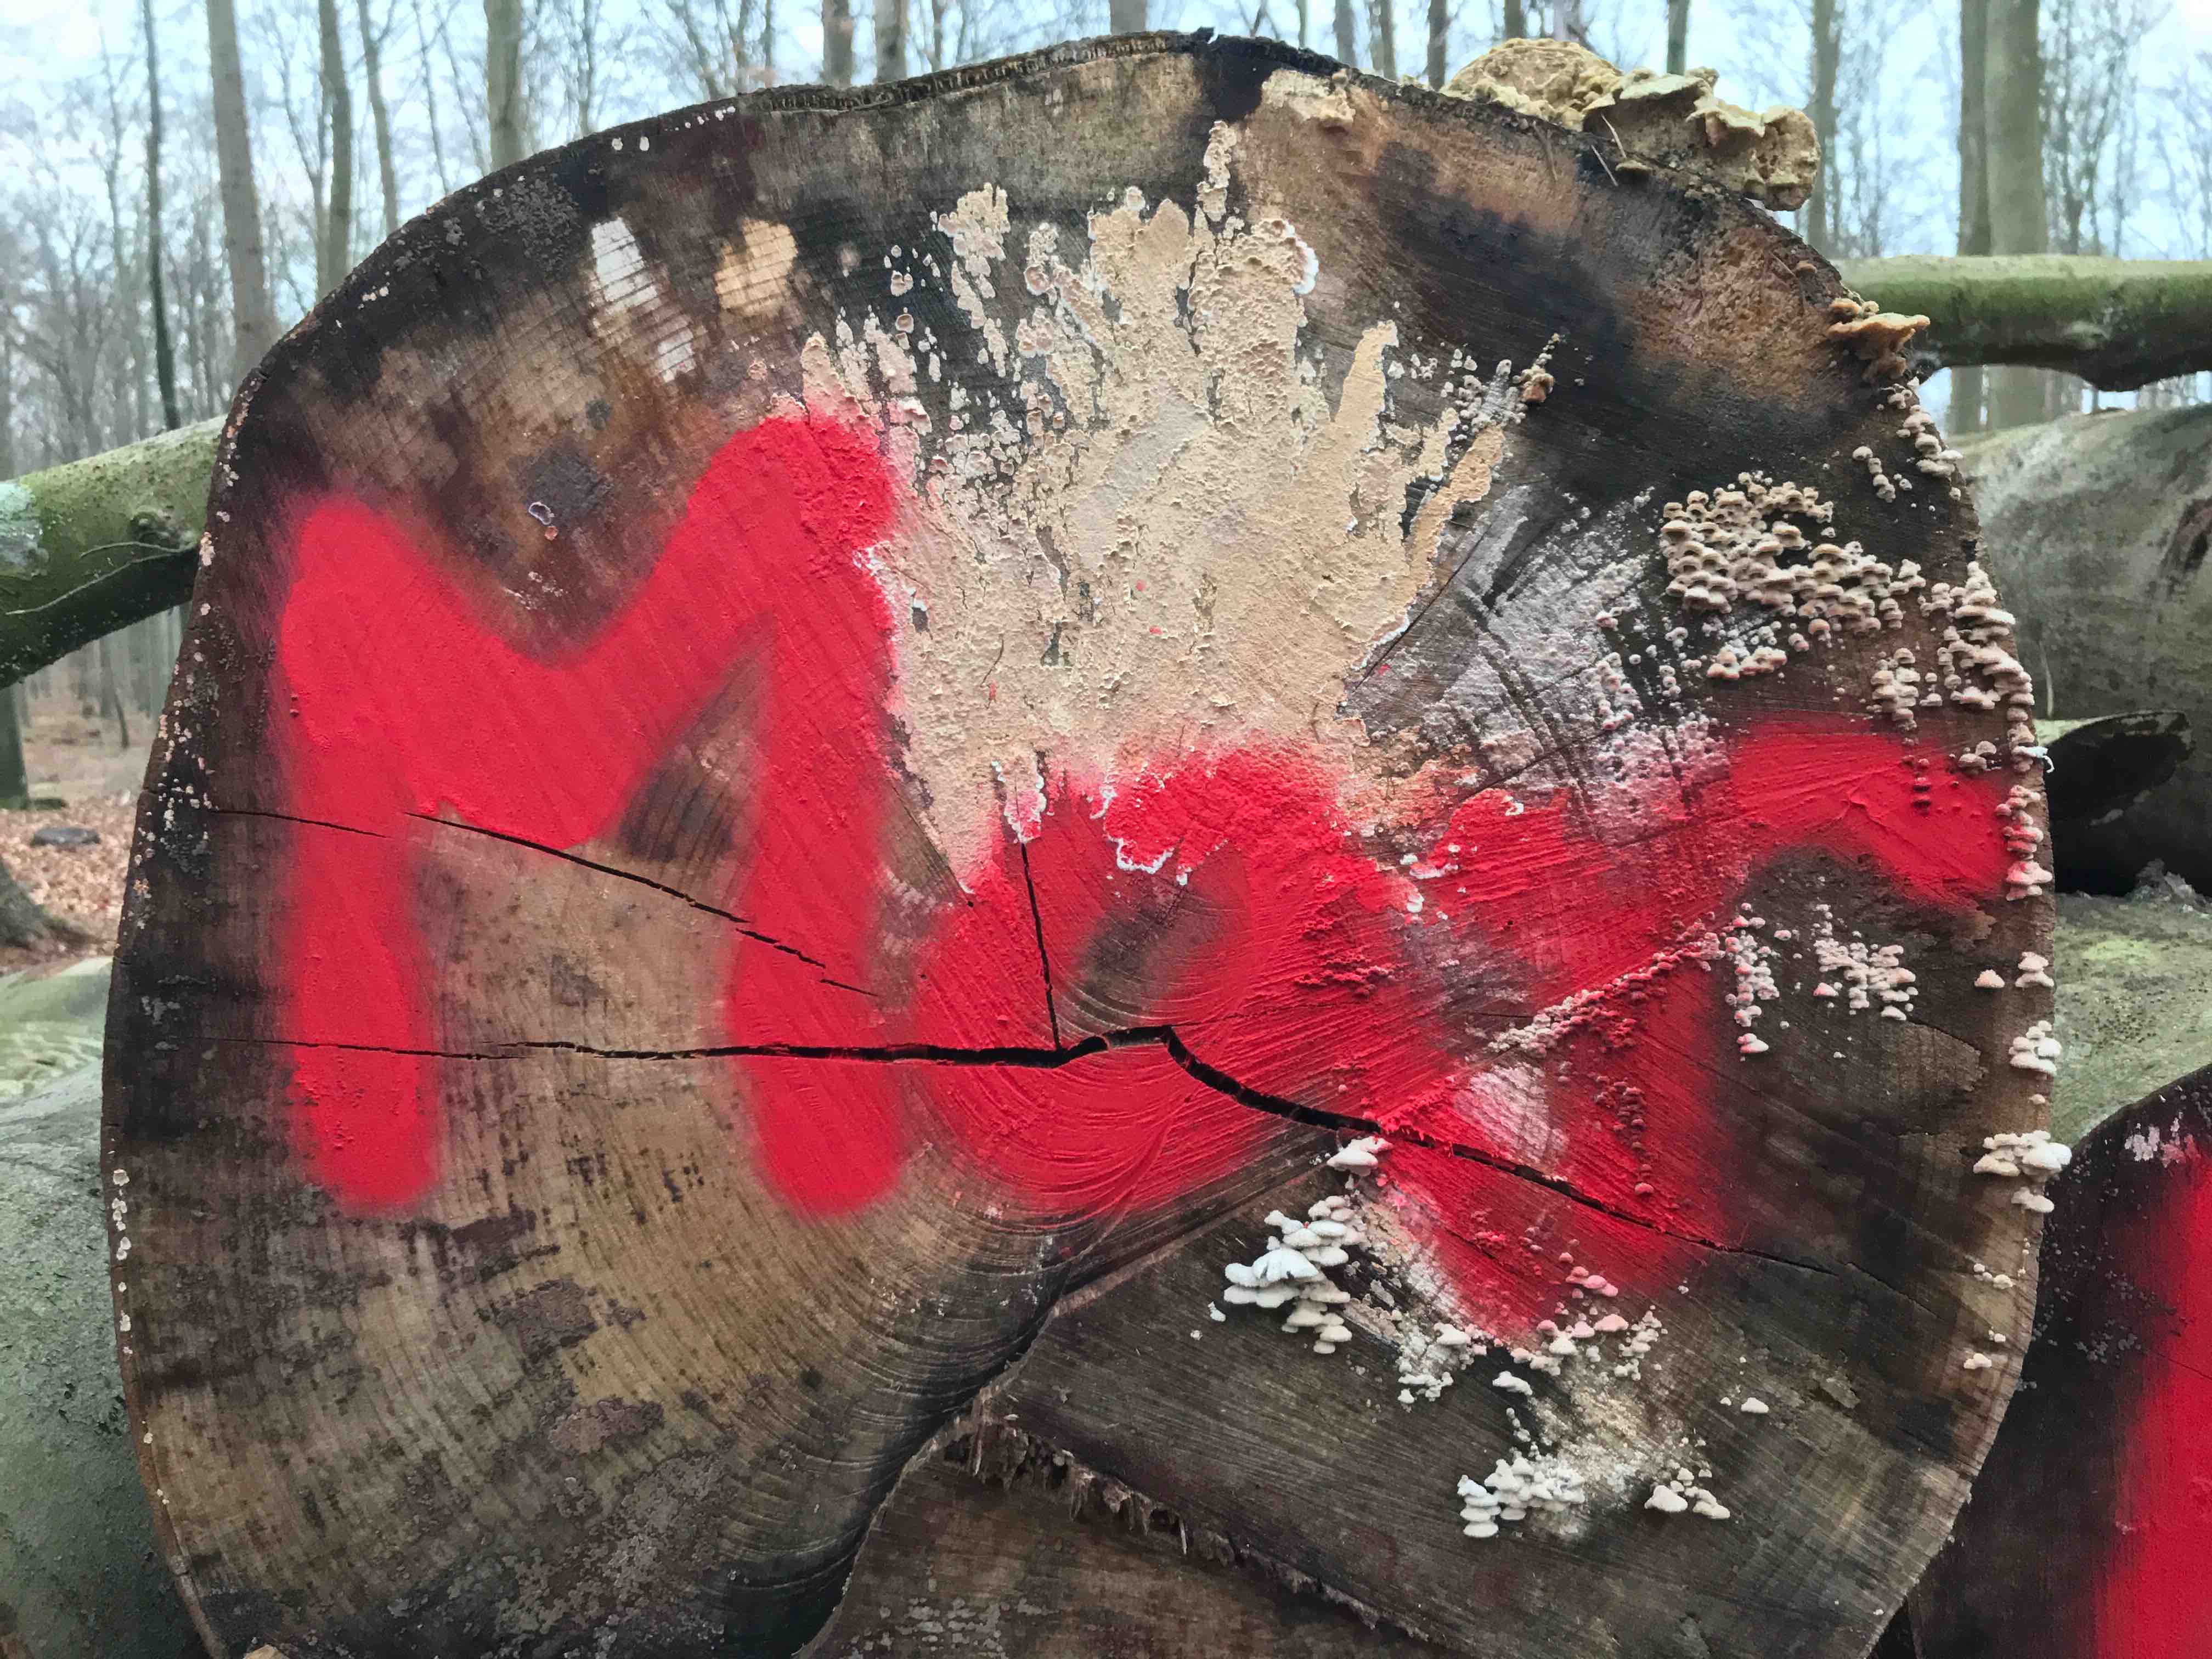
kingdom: Fungi
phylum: Basidiomycota
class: Agaricomycetes
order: Agaricales
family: Physalacriaceae
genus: Cylindrobasidium
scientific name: Cylindrobasidium evolvens
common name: sprækkehinde
